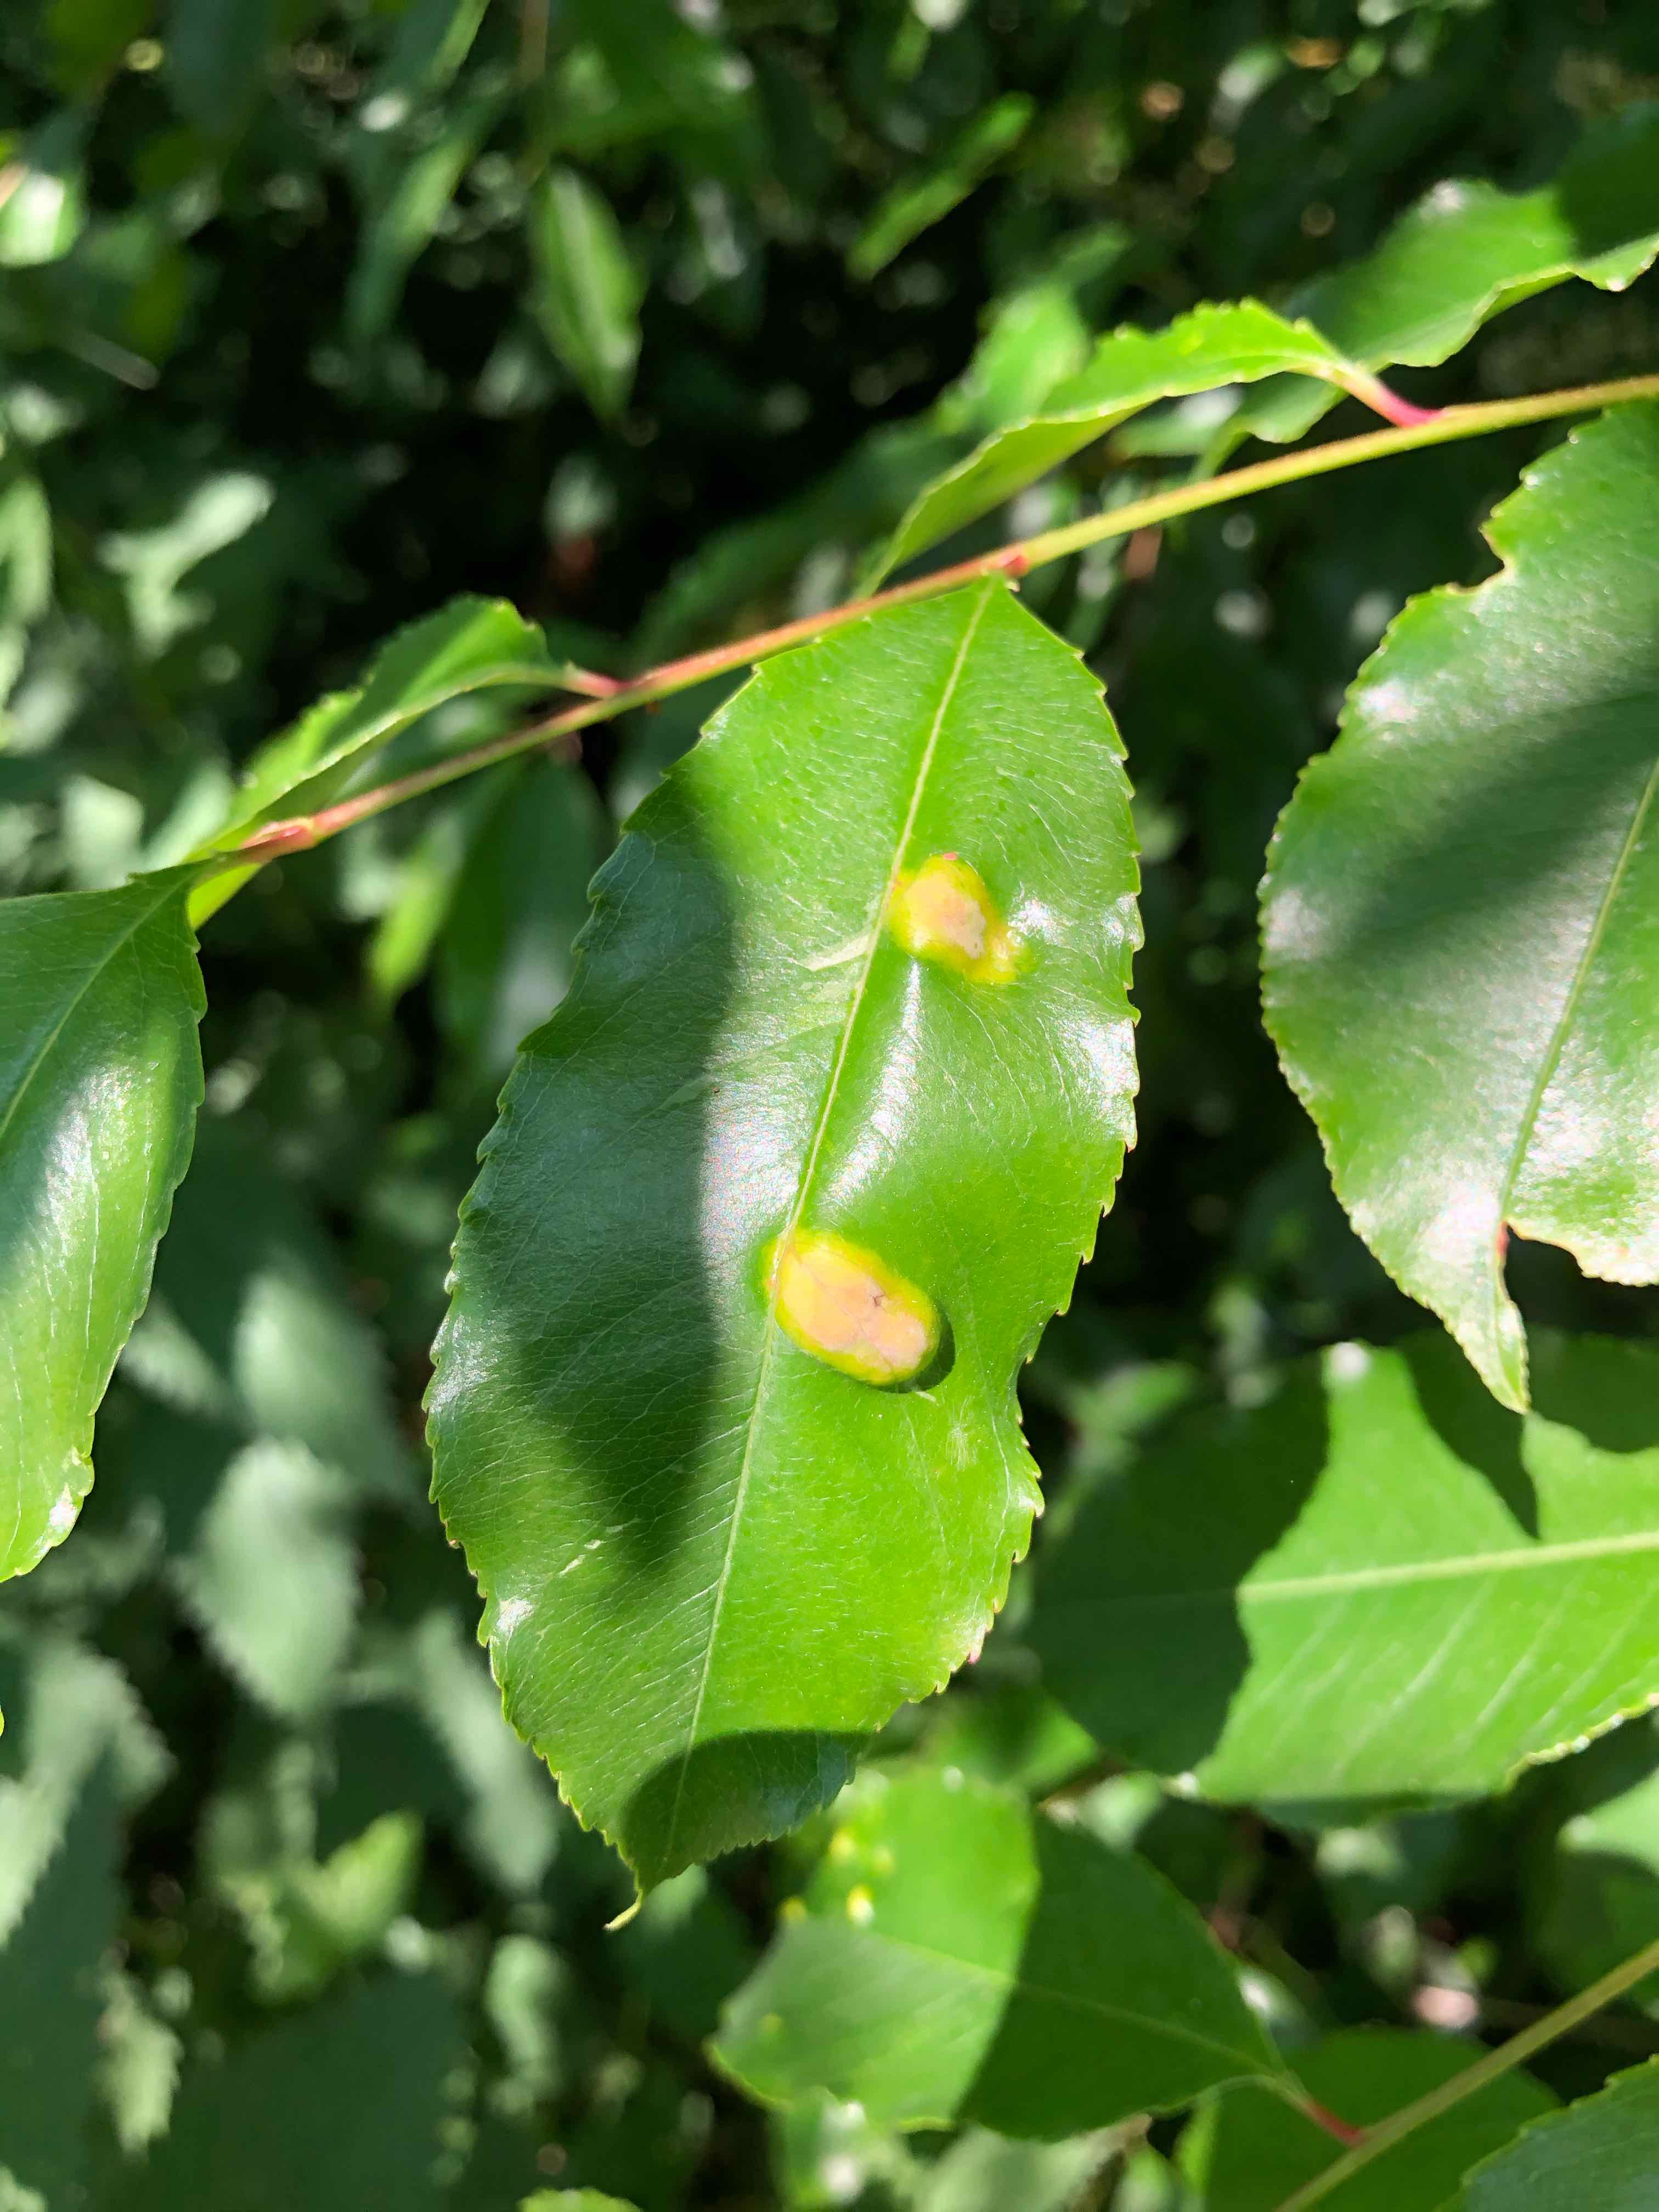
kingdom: Fungi
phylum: Ascomycota
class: Taphrinomycetes
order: Taphrinales
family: Taphrinaceae
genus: Taphrina
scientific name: Taphrina farlowii
